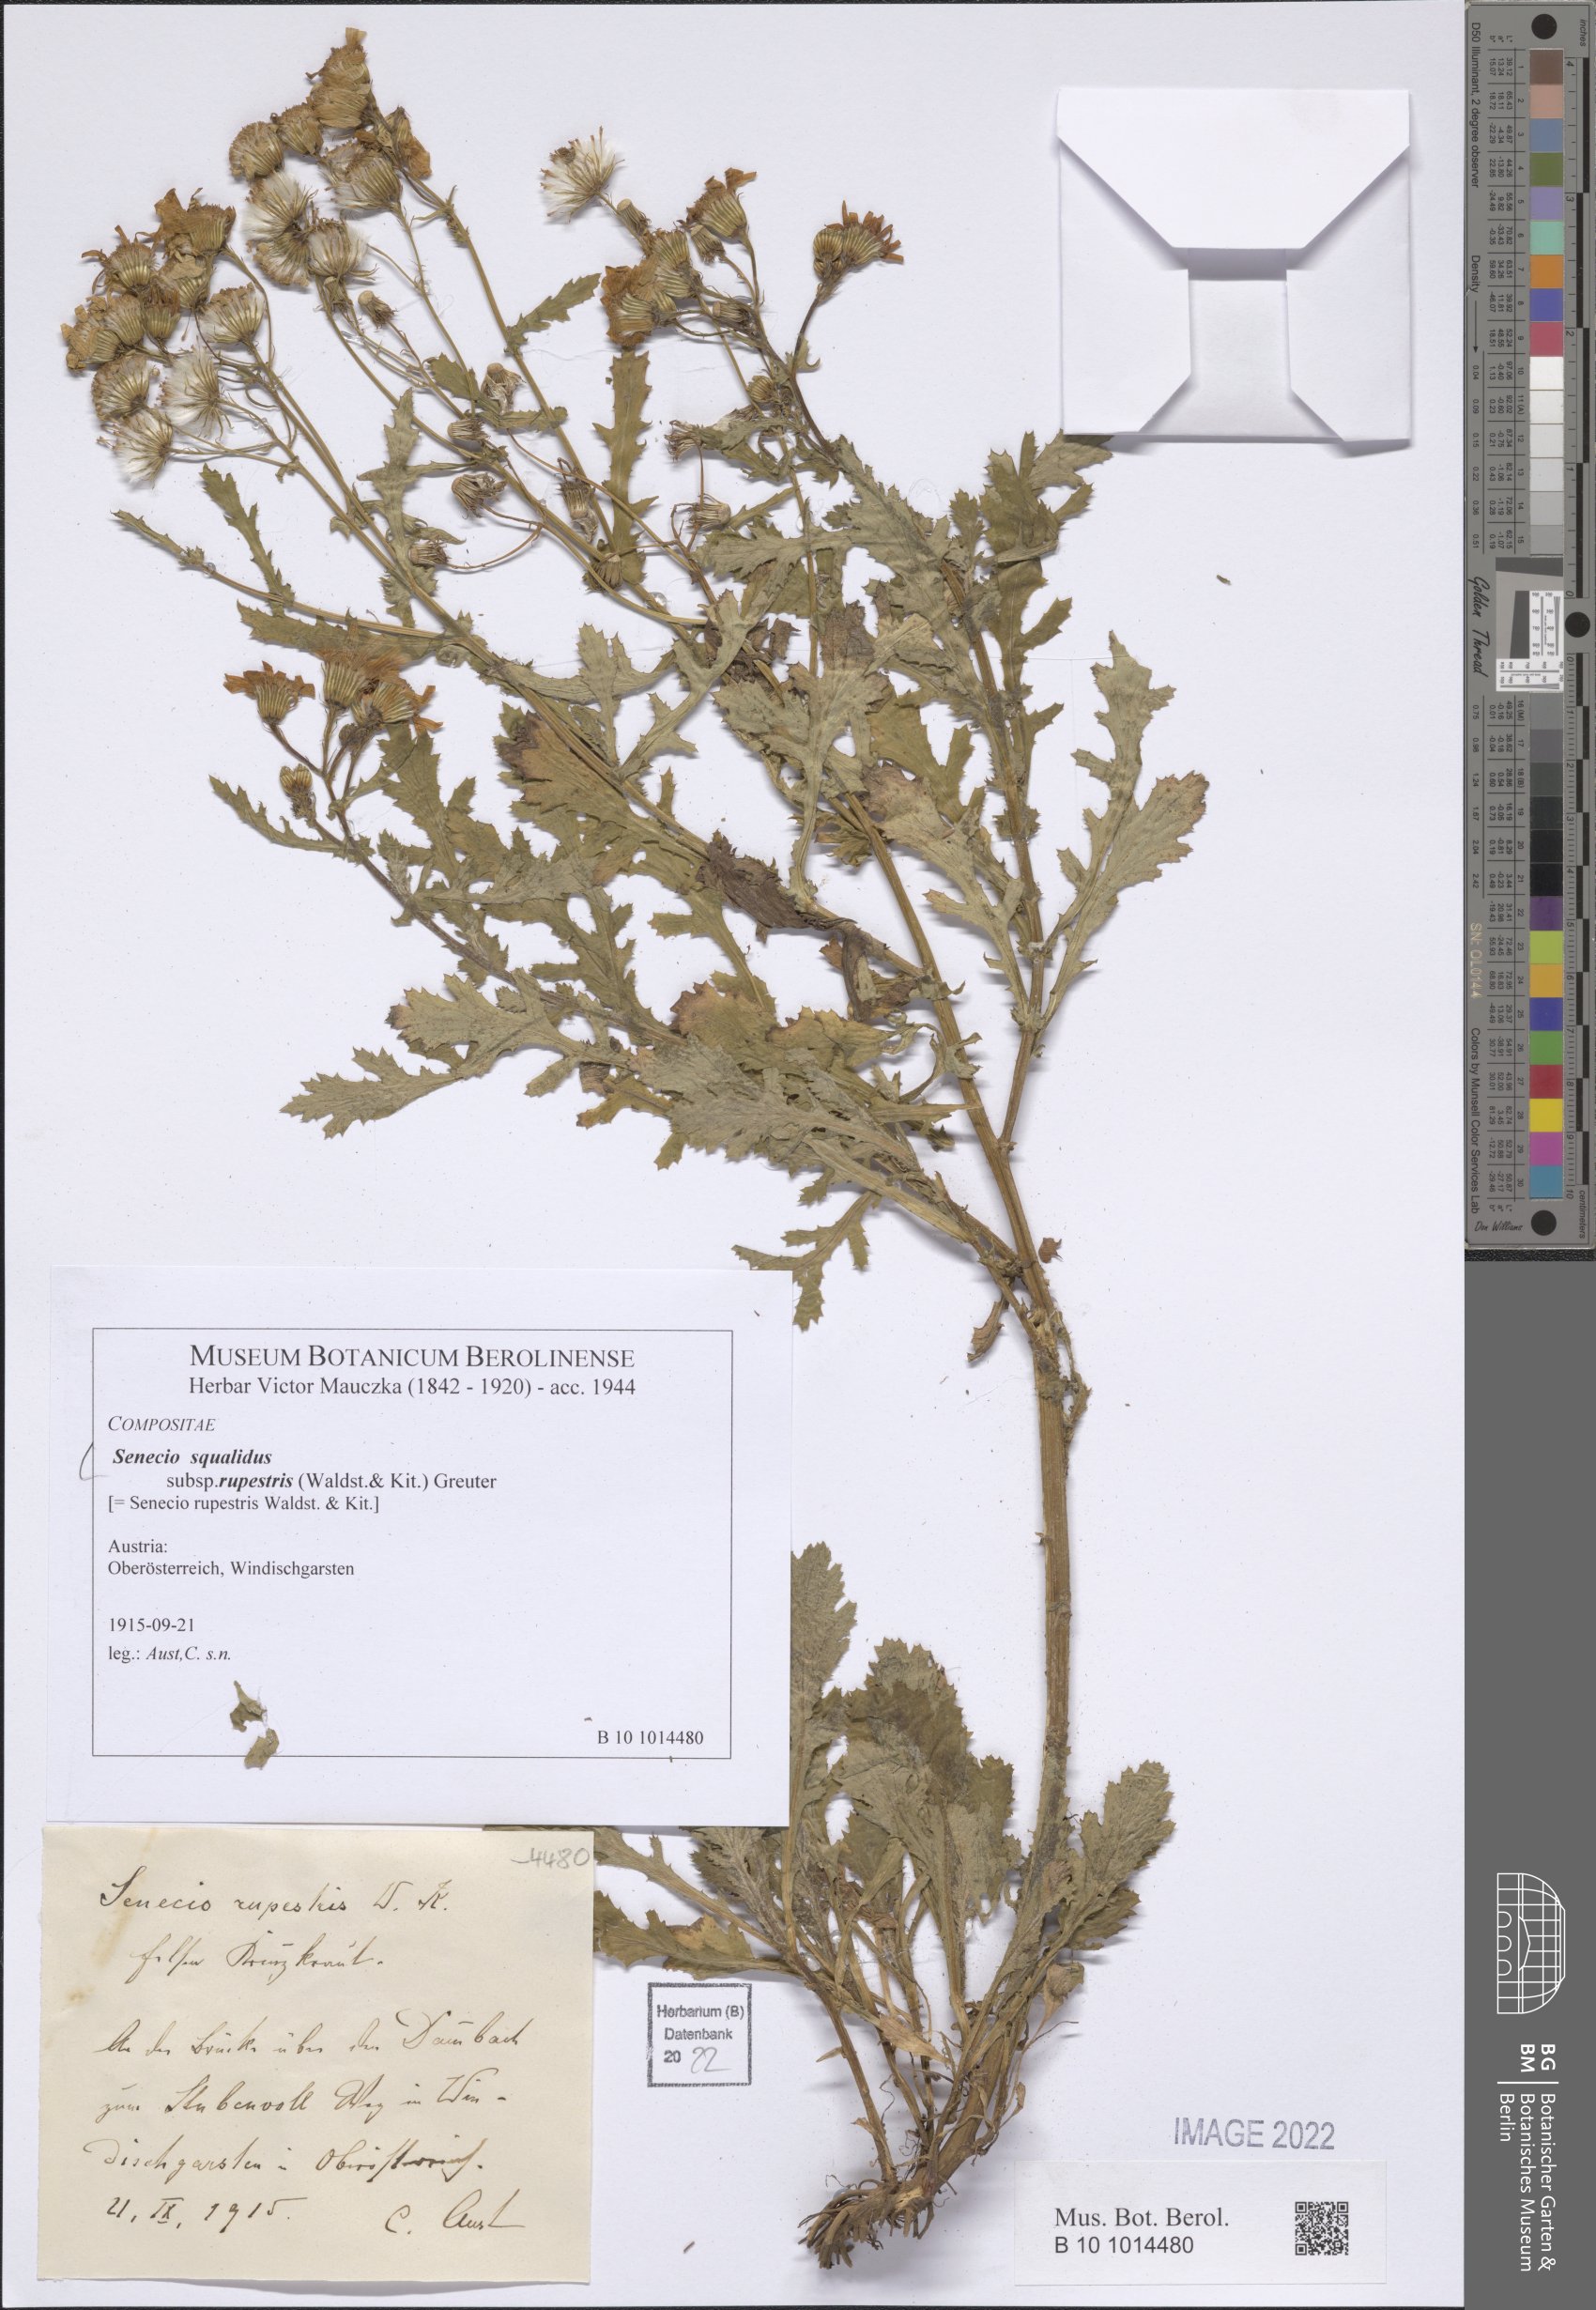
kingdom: Plantae
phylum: Tracheophyta
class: Magnoliopsida
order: Asterales
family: Asteraceae
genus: Senecio
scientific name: Senecio rupestris
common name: Rock ragwort
